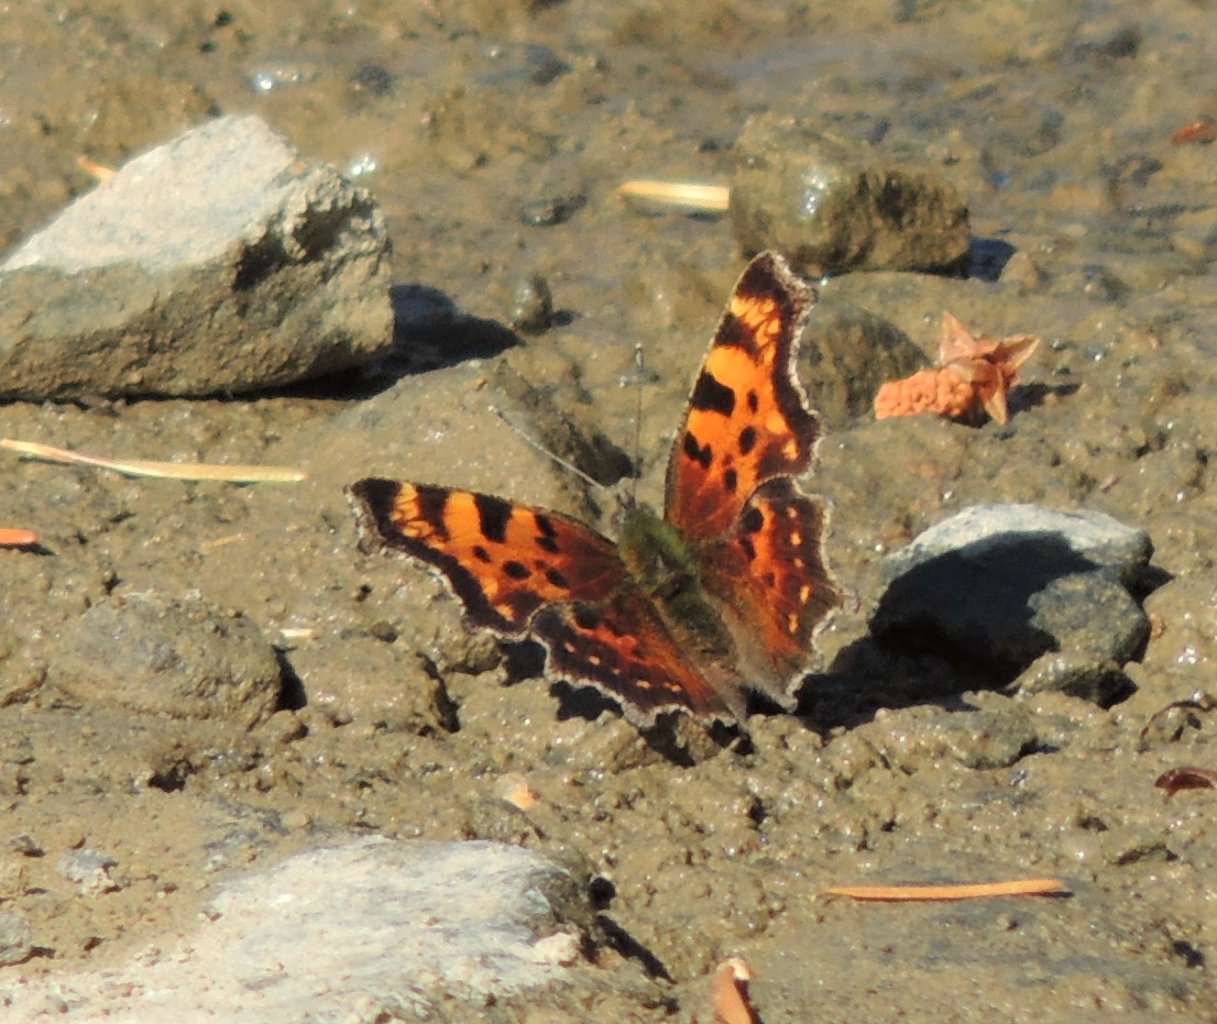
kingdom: Animalia
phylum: Arthropoda
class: Insecta
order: Lepidoptera
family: Nymphalidae
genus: Polygonia
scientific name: Polygonia faunus
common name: Green Comma
